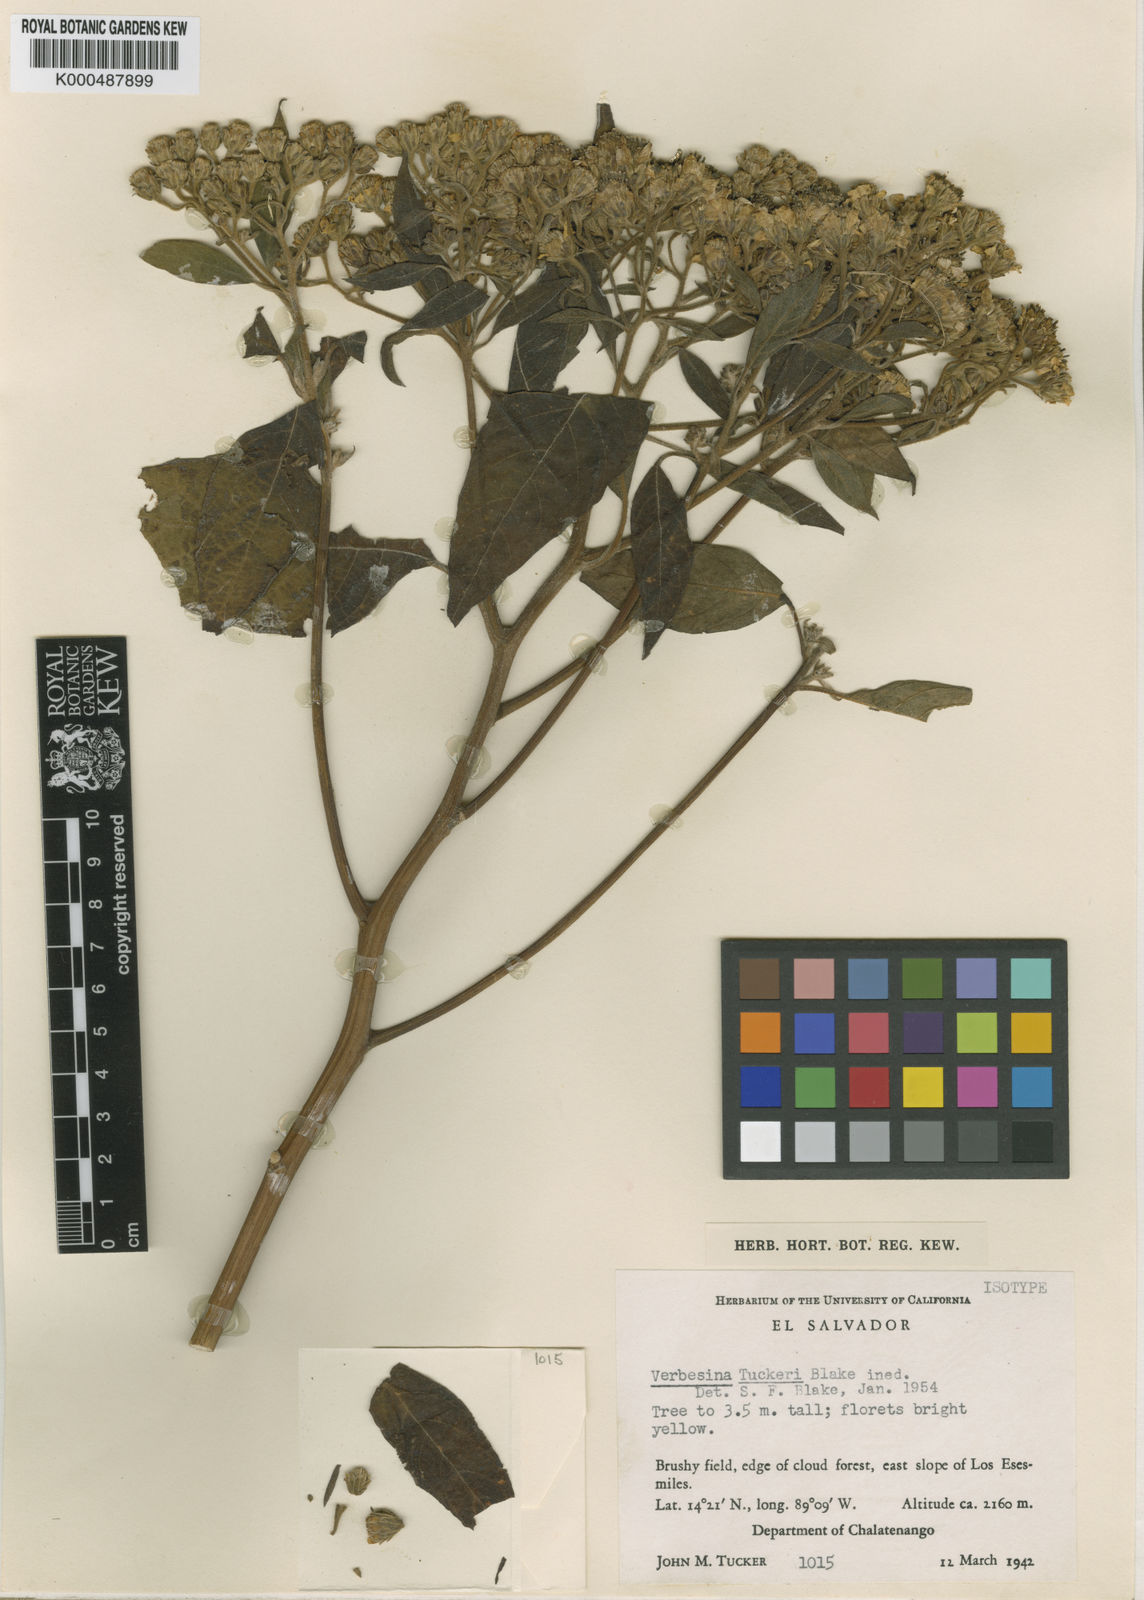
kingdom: Plantae
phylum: Tracheophyta
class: Magnoliopsida
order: Asterales
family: Asteraceae
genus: Verbesina
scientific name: Verbesina
